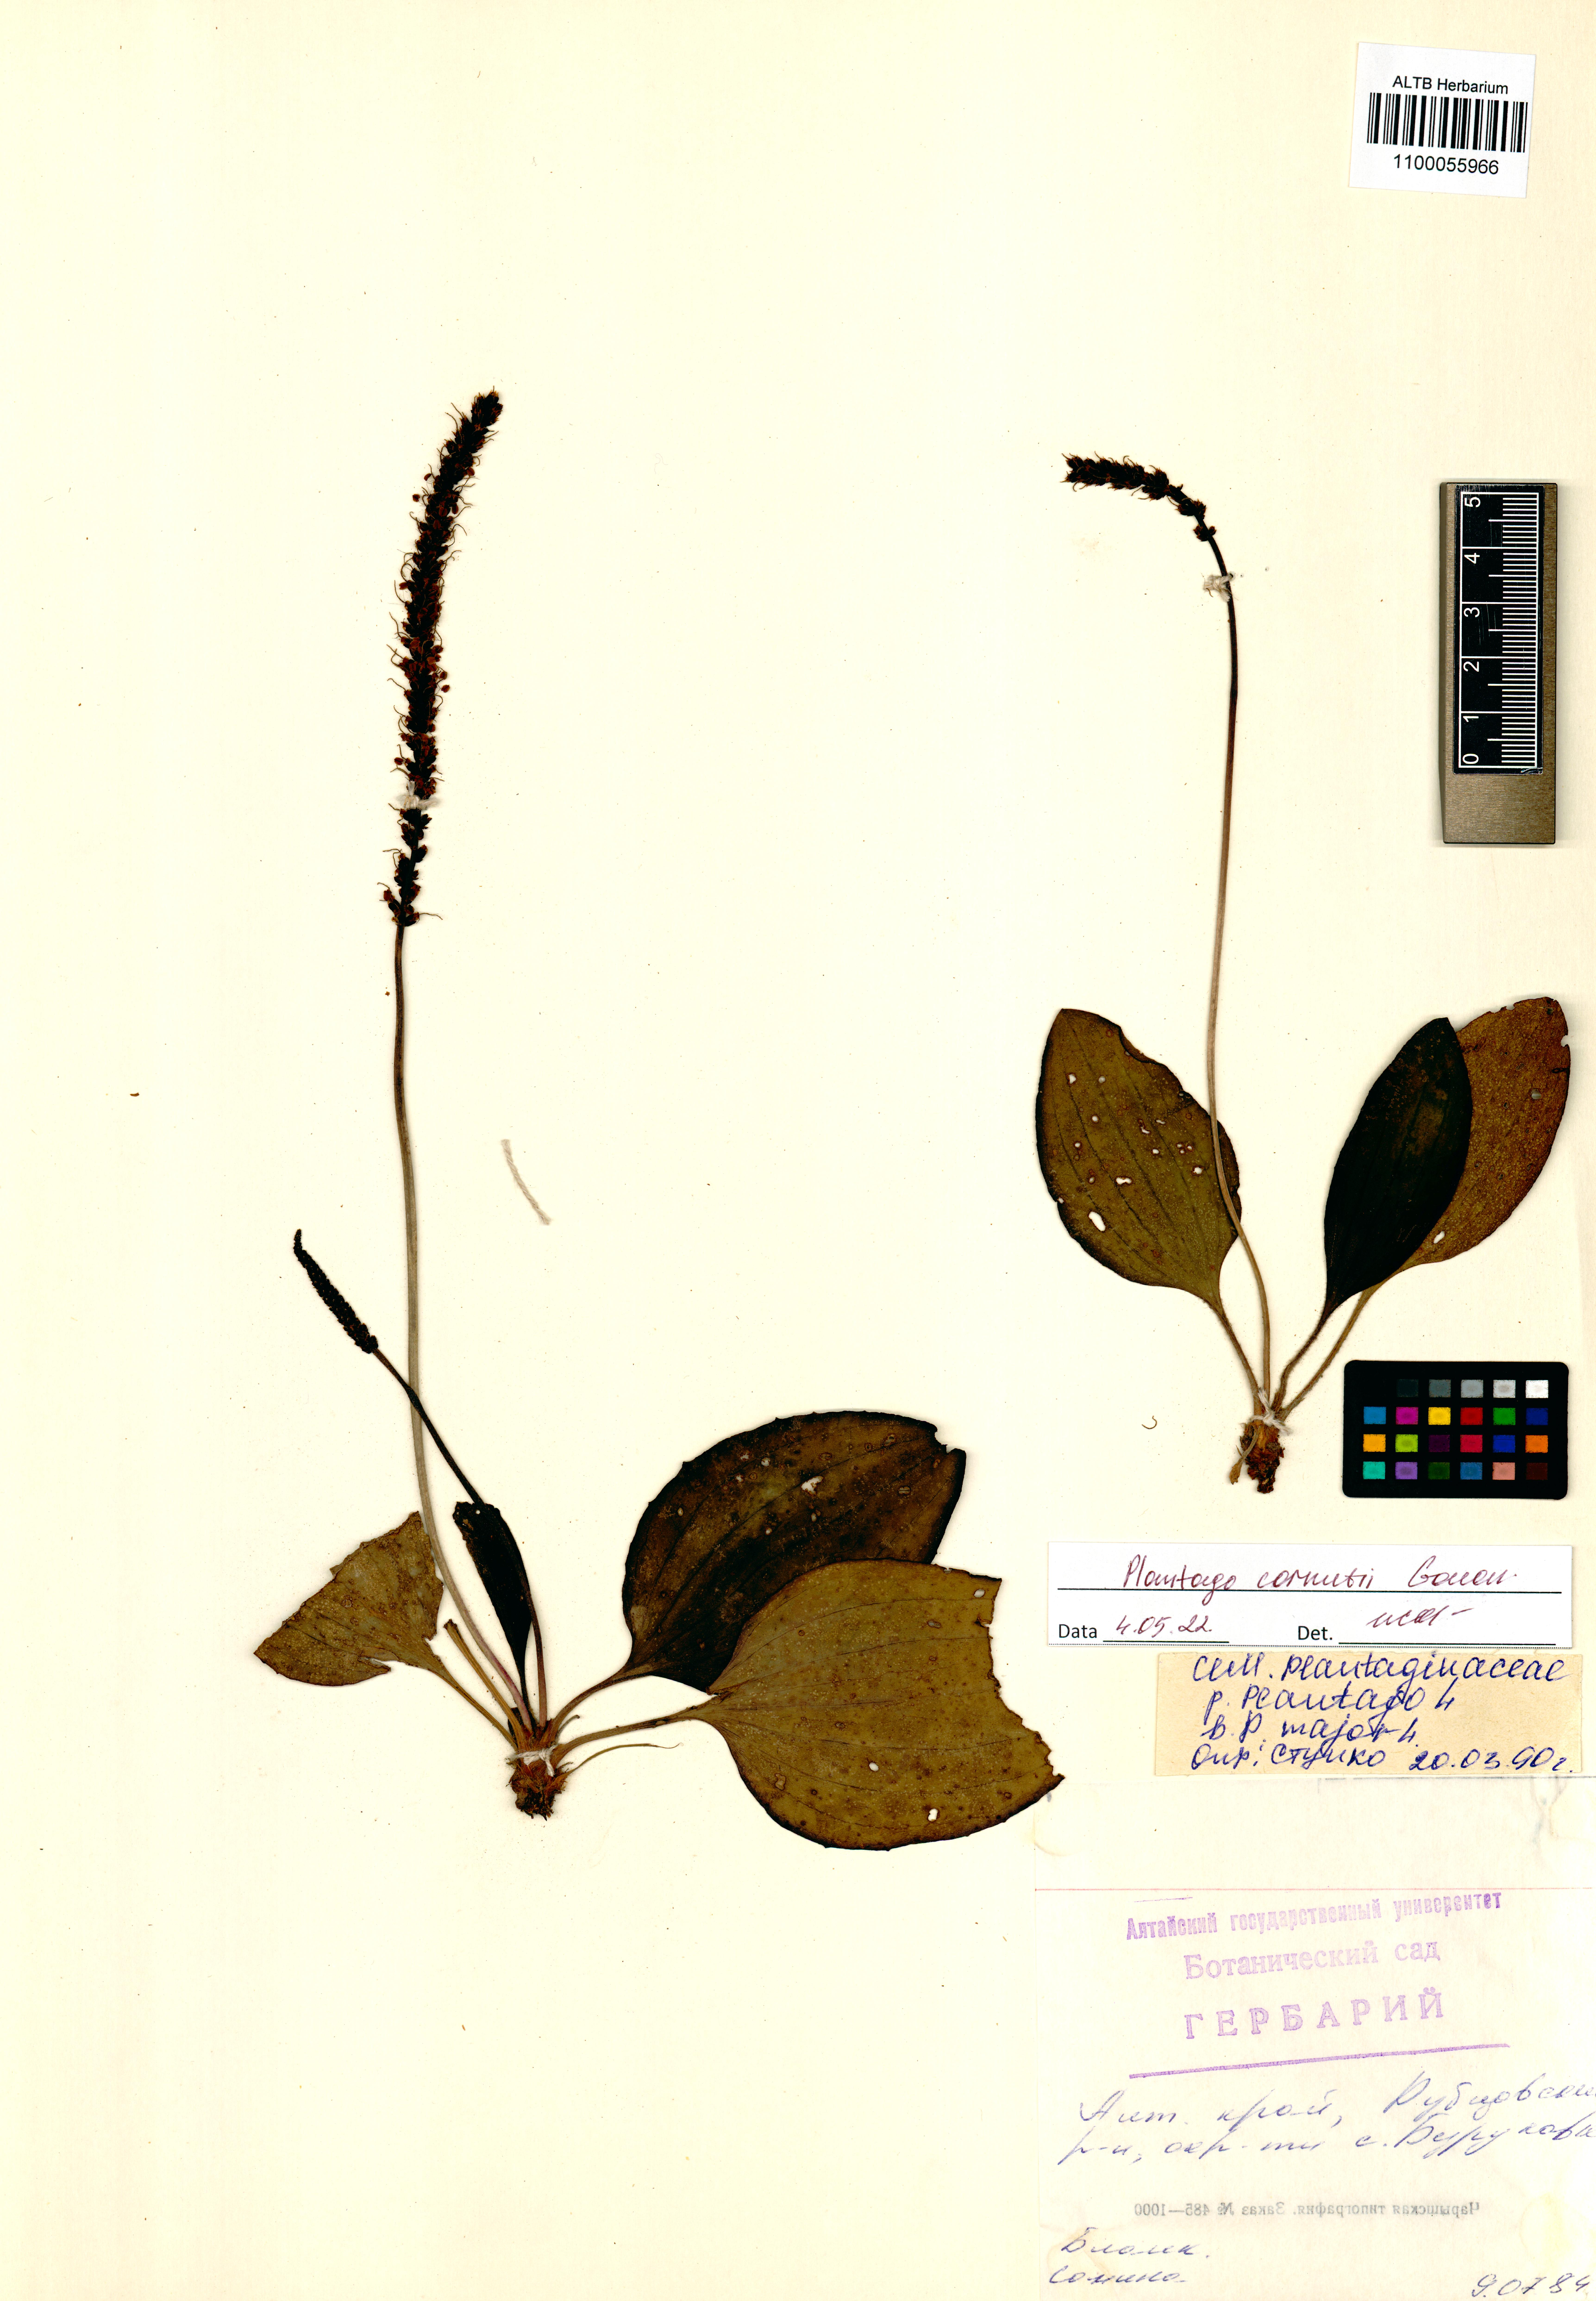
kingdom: Plantae
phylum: Tracheophyta
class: Magnoliopsida
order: Lamiales
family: Plantaginaceae
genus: Plantago
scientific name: Plantago cornuti
